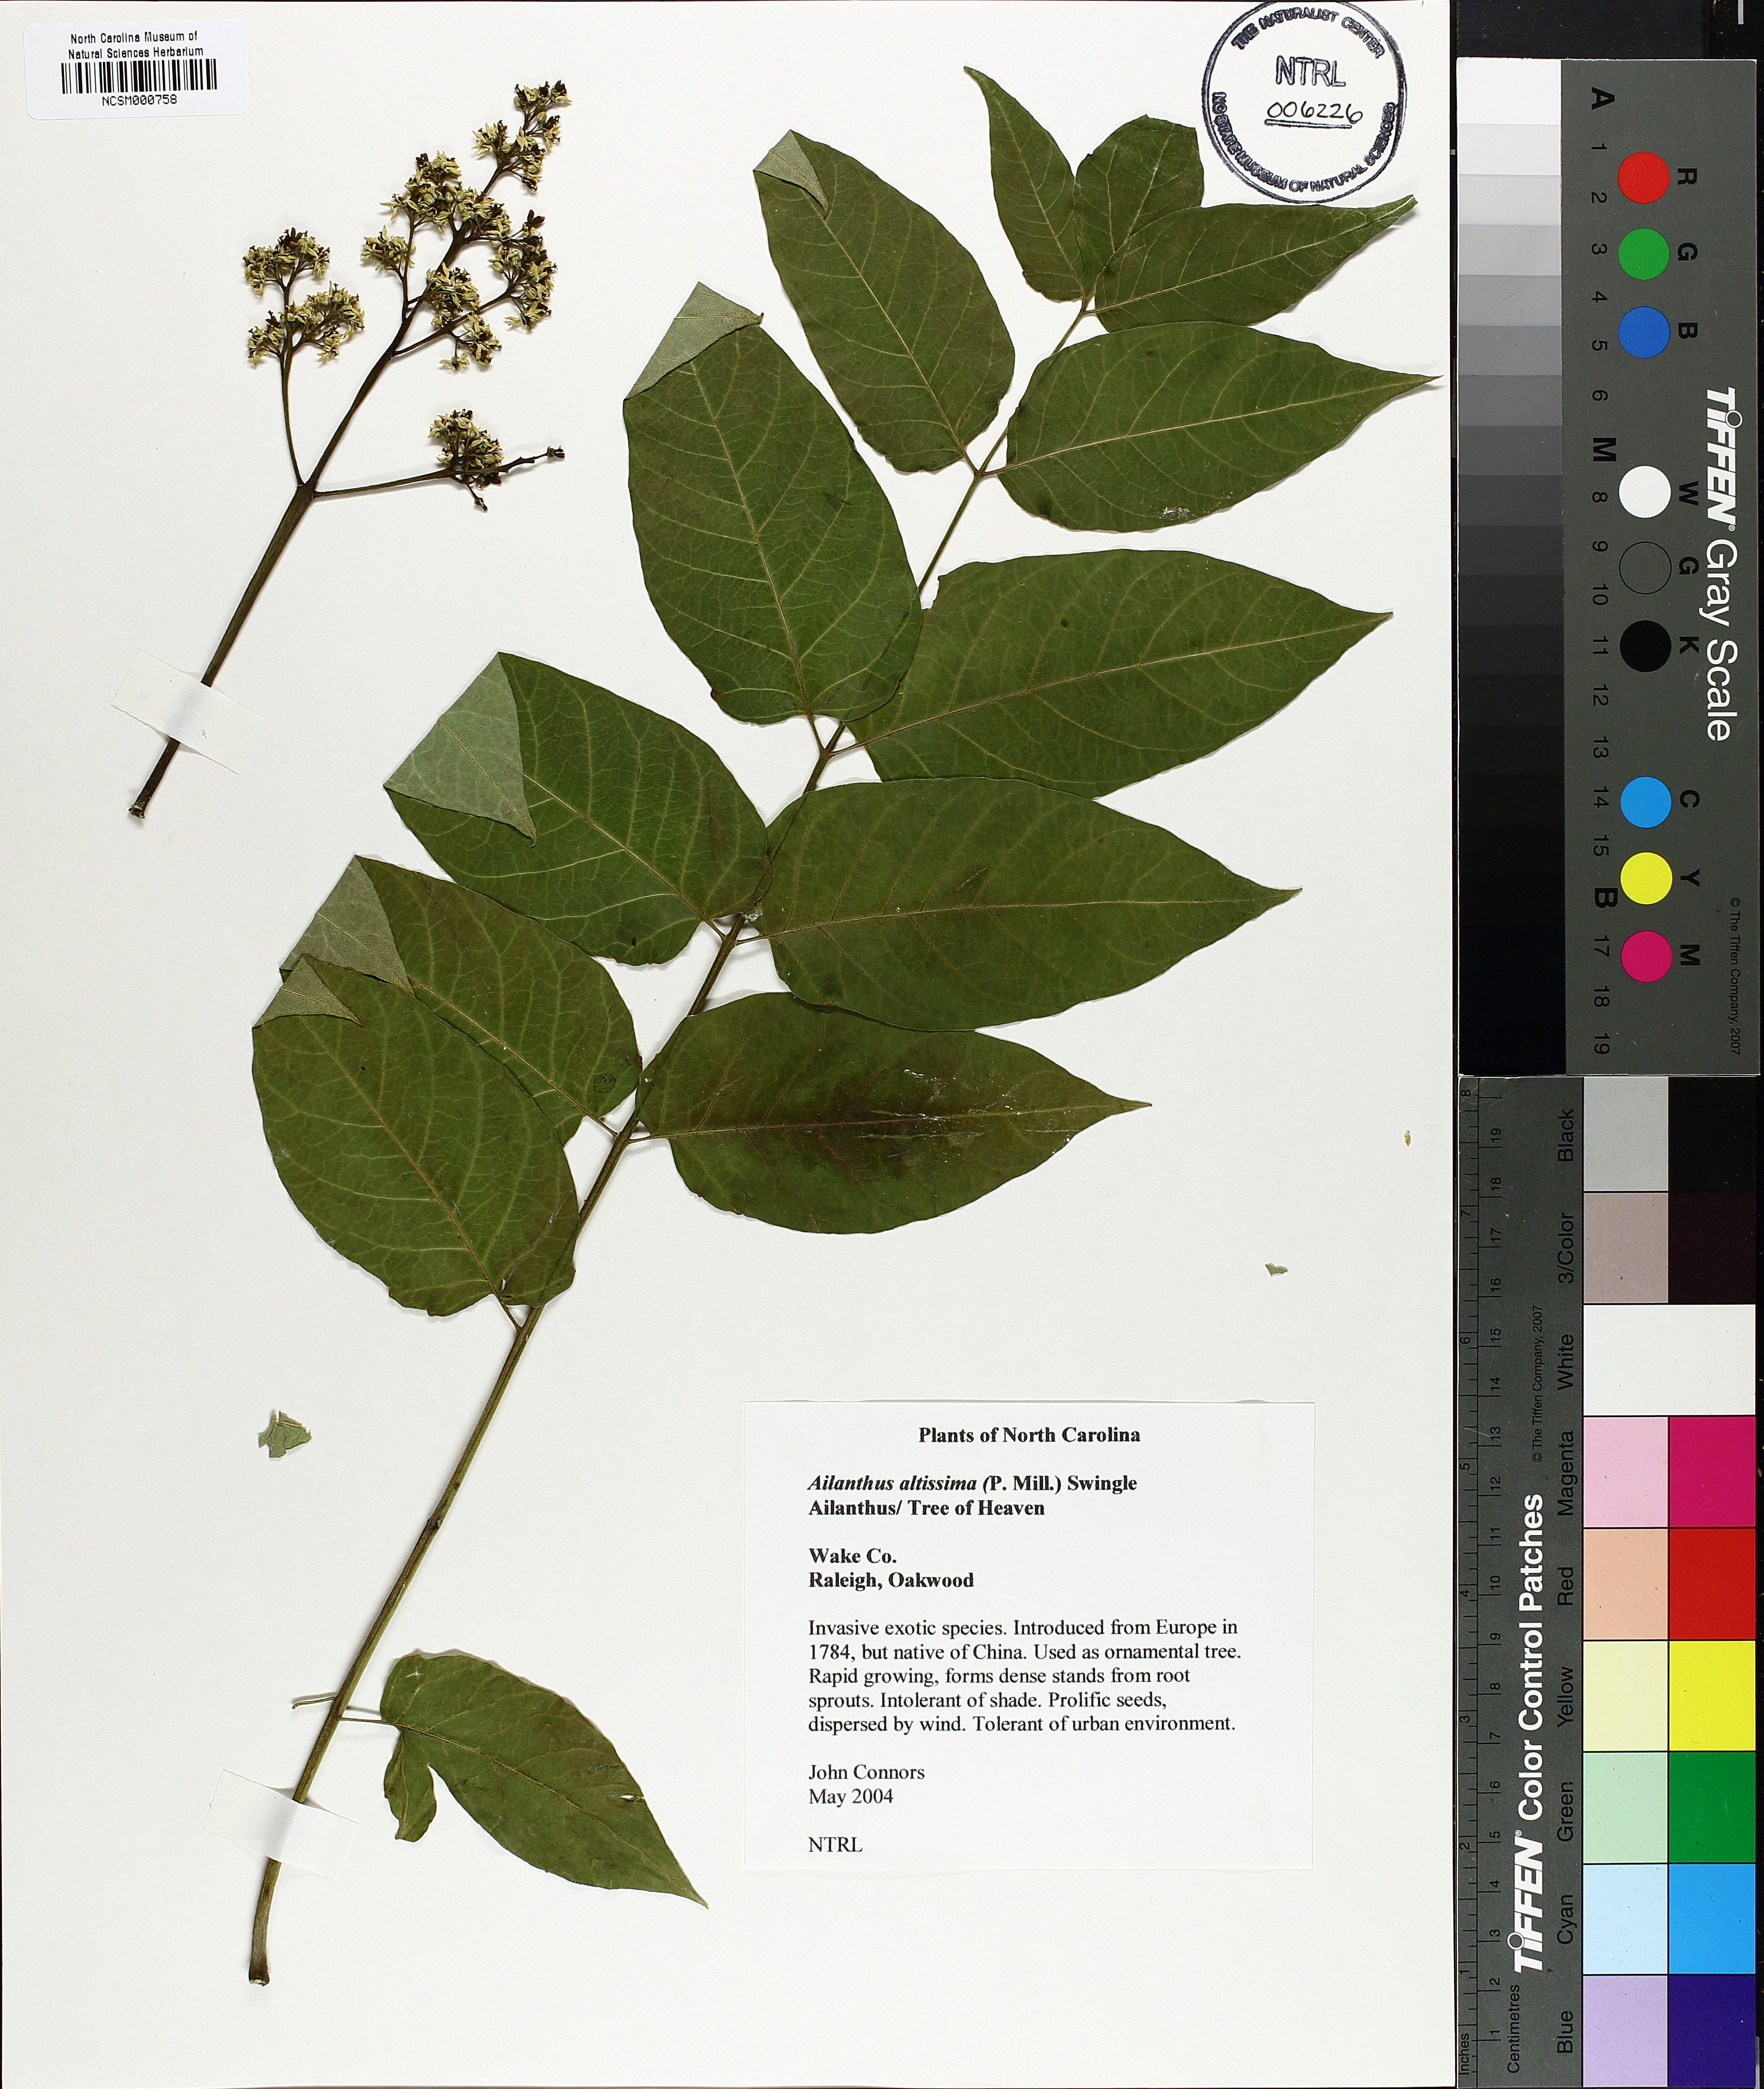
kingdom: Plantae
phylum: Tracheophyta
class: Magnoliopsida
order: Sapindales
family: Simaroubaceae
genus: Ailanthus
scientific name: Ailanthus altissima
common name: Tree-of-heaven
